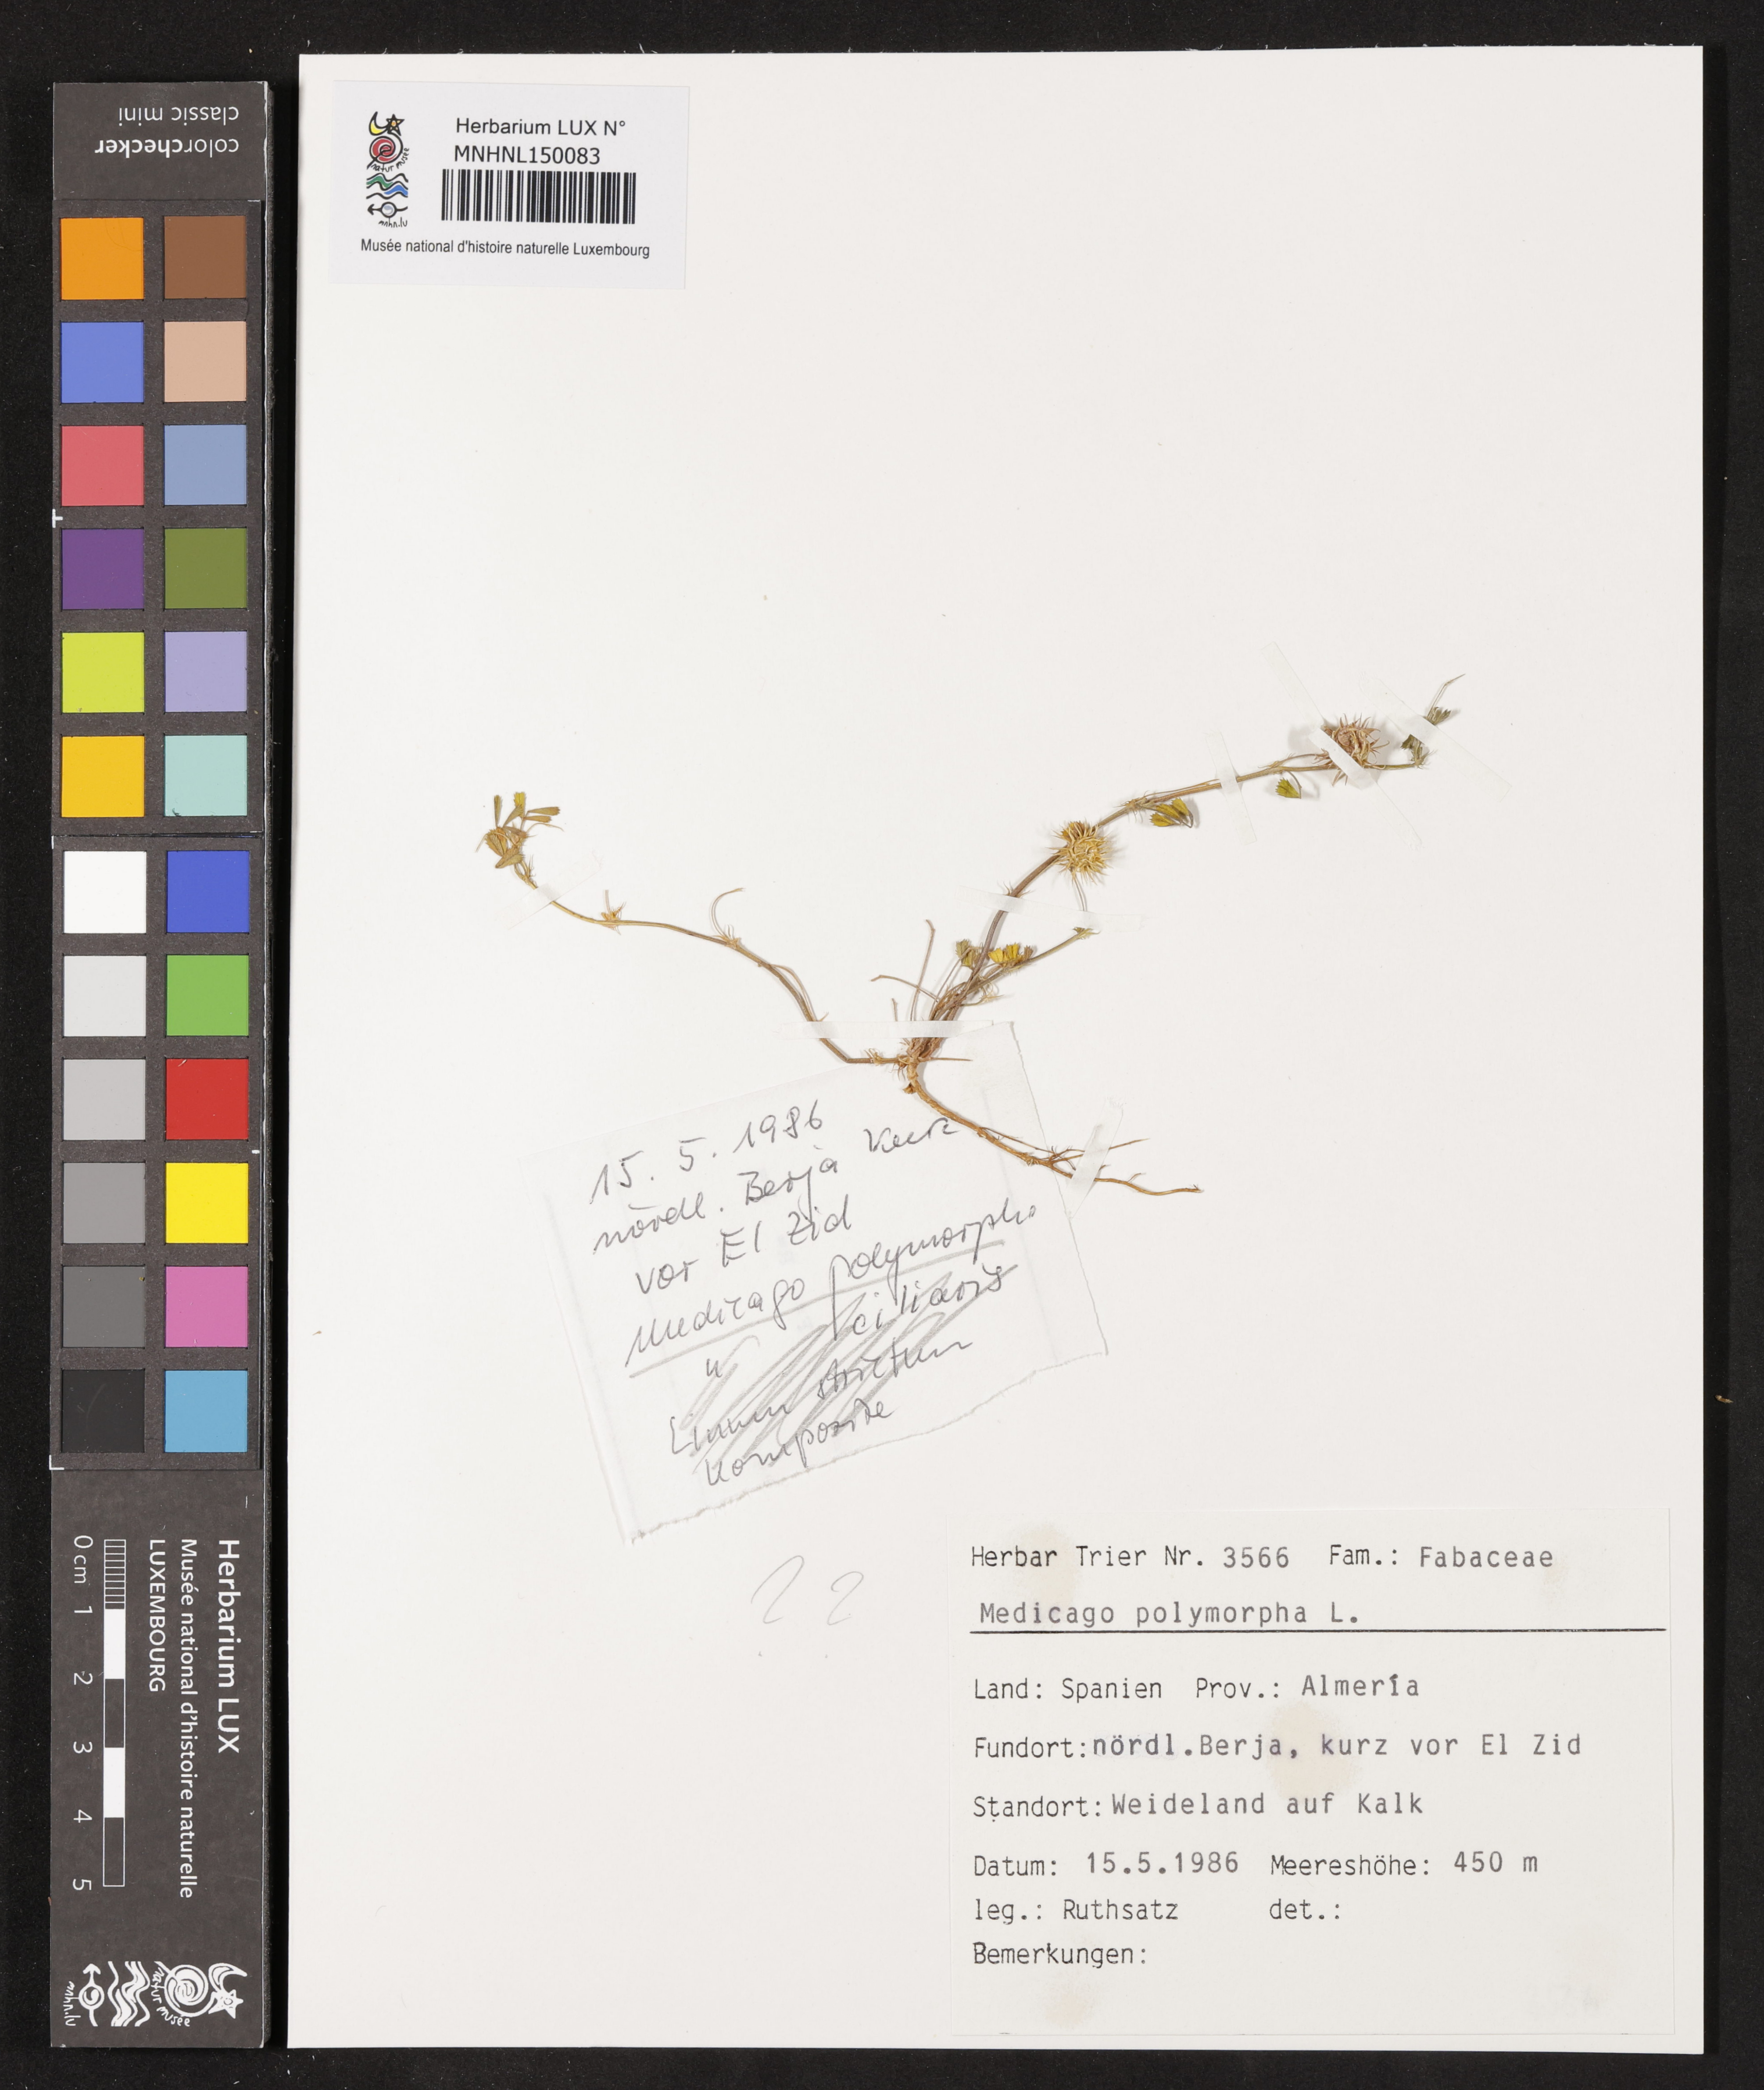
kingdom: Plantae
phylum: Tracheophyta
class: Magnoliopsida
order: Fabales
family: Fabaceae
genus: Medicago
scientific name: Medicago polymorpha
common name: Burclover
